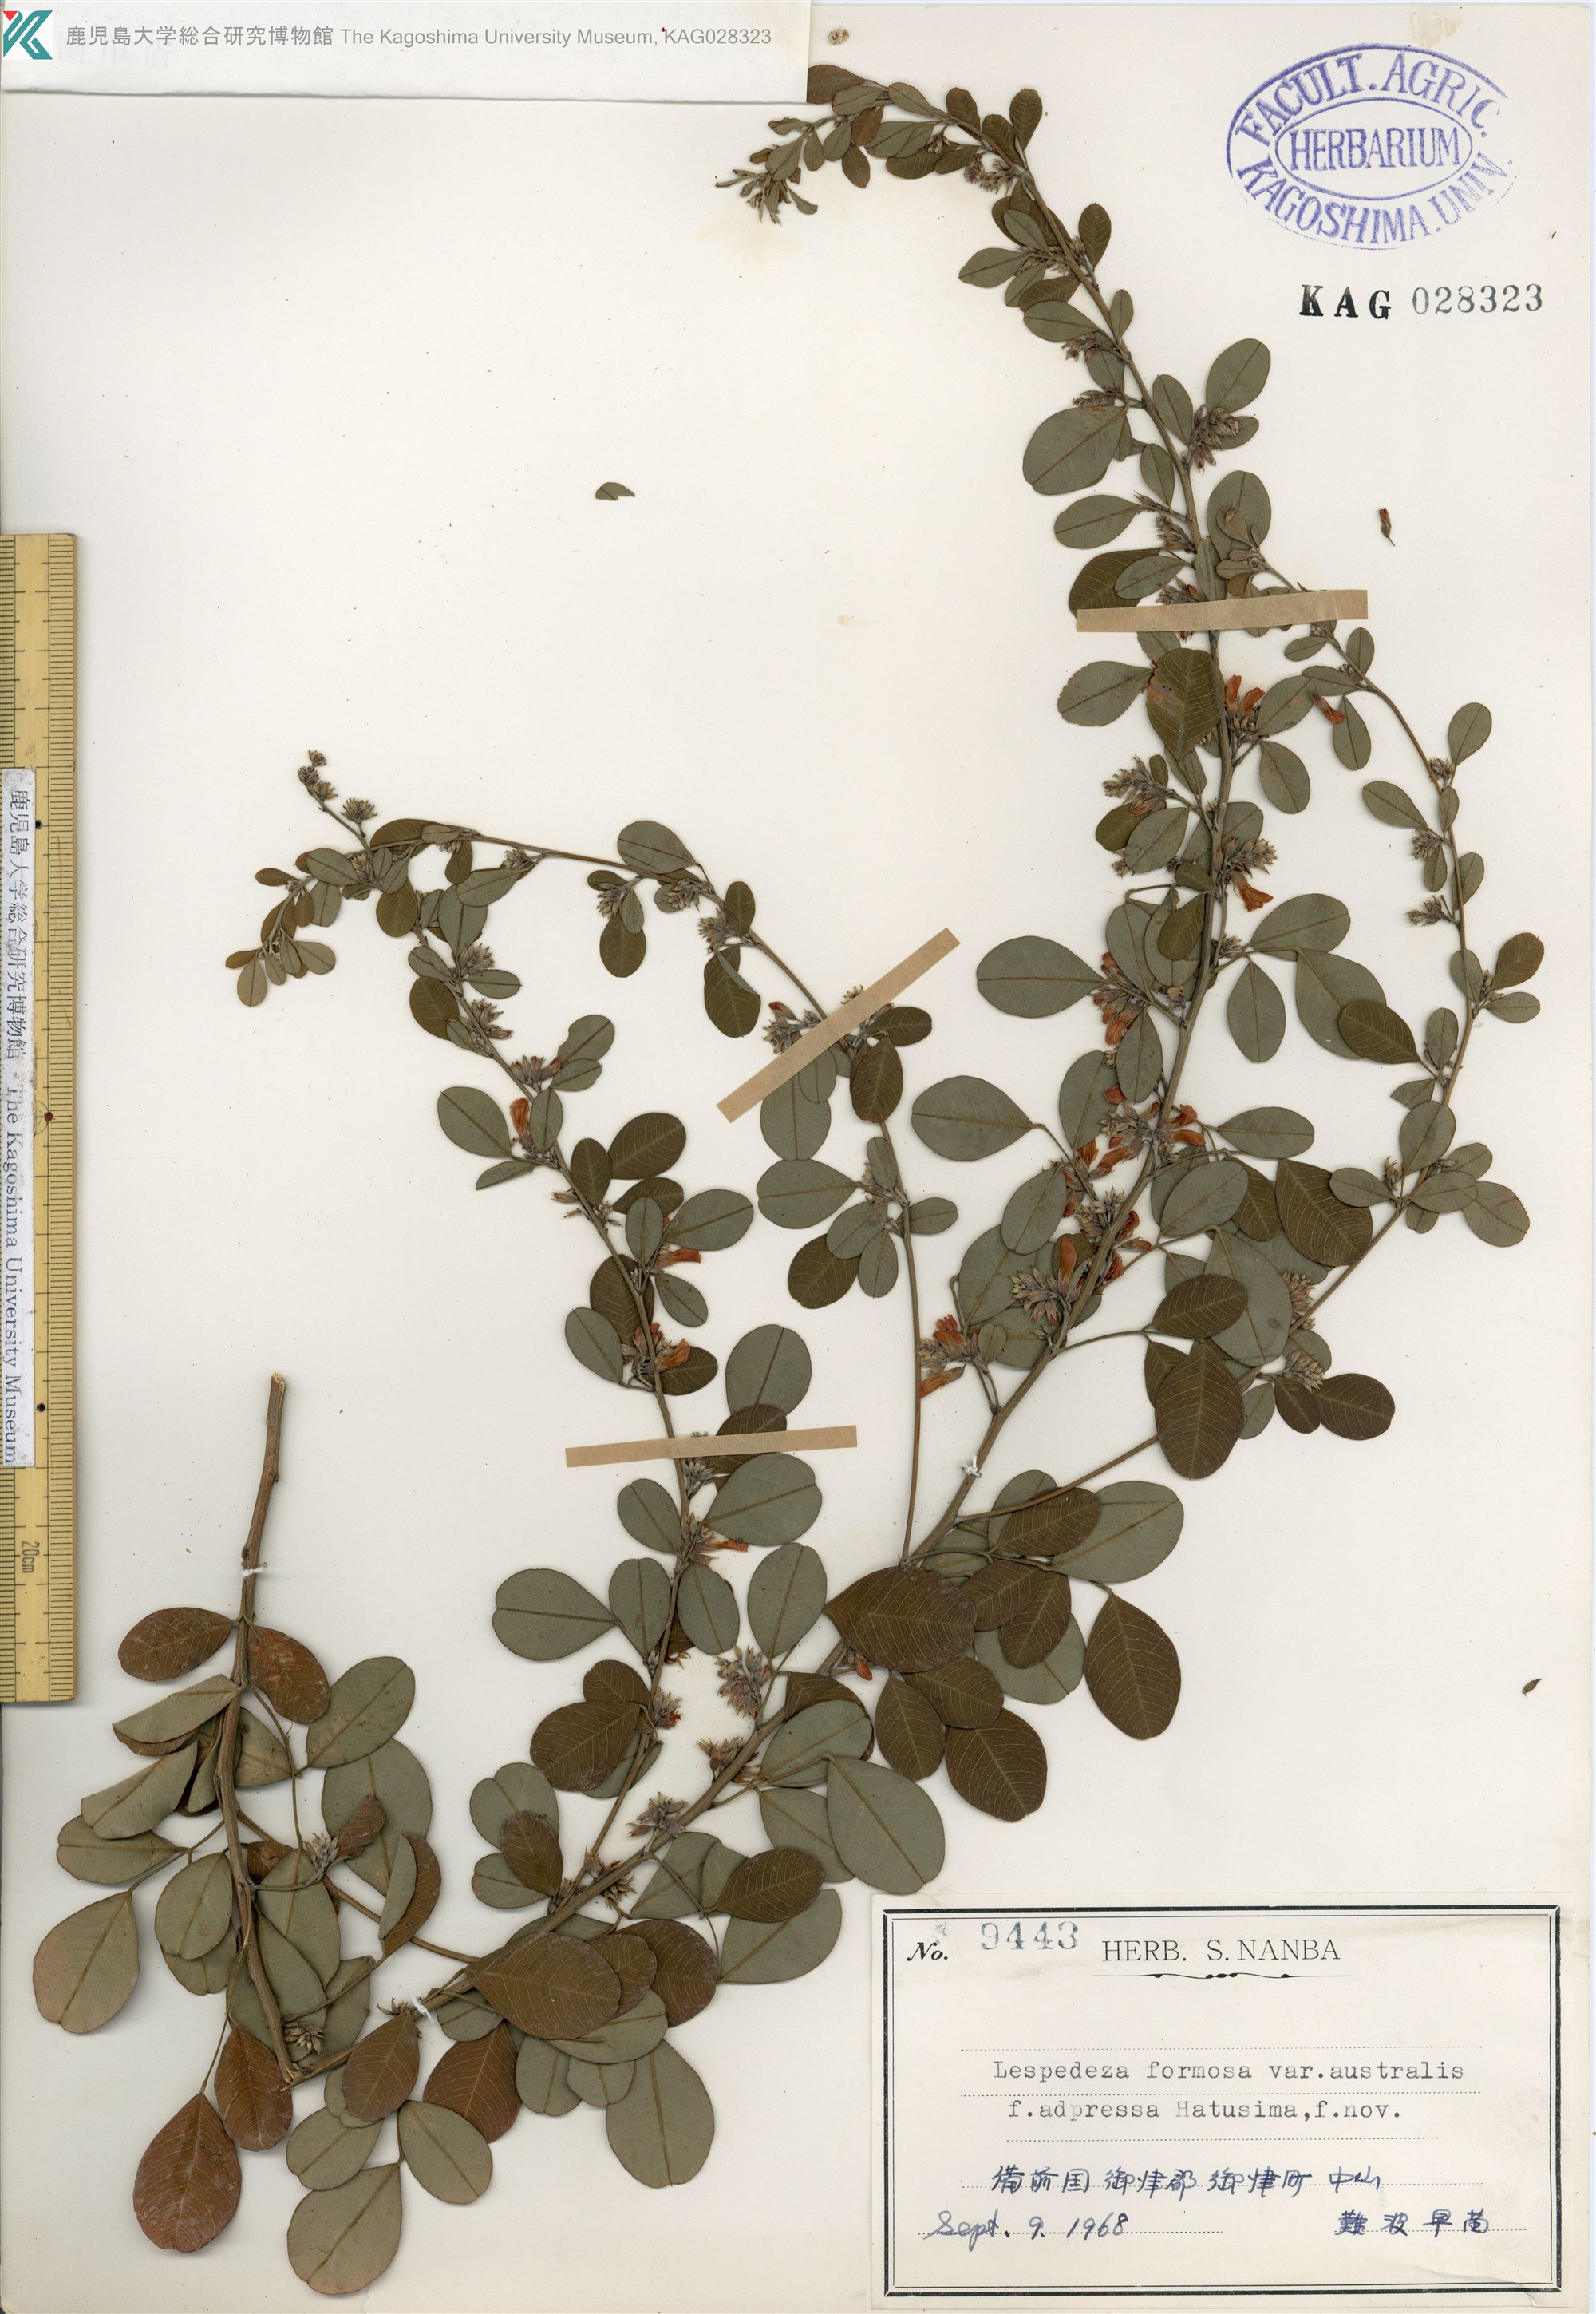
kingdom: Plantae
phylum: Tracheophyta
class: Magnoliopsida
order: Fabales
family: Fabaceae
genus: Lespedeza
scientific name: Lespedeza thunbergii
